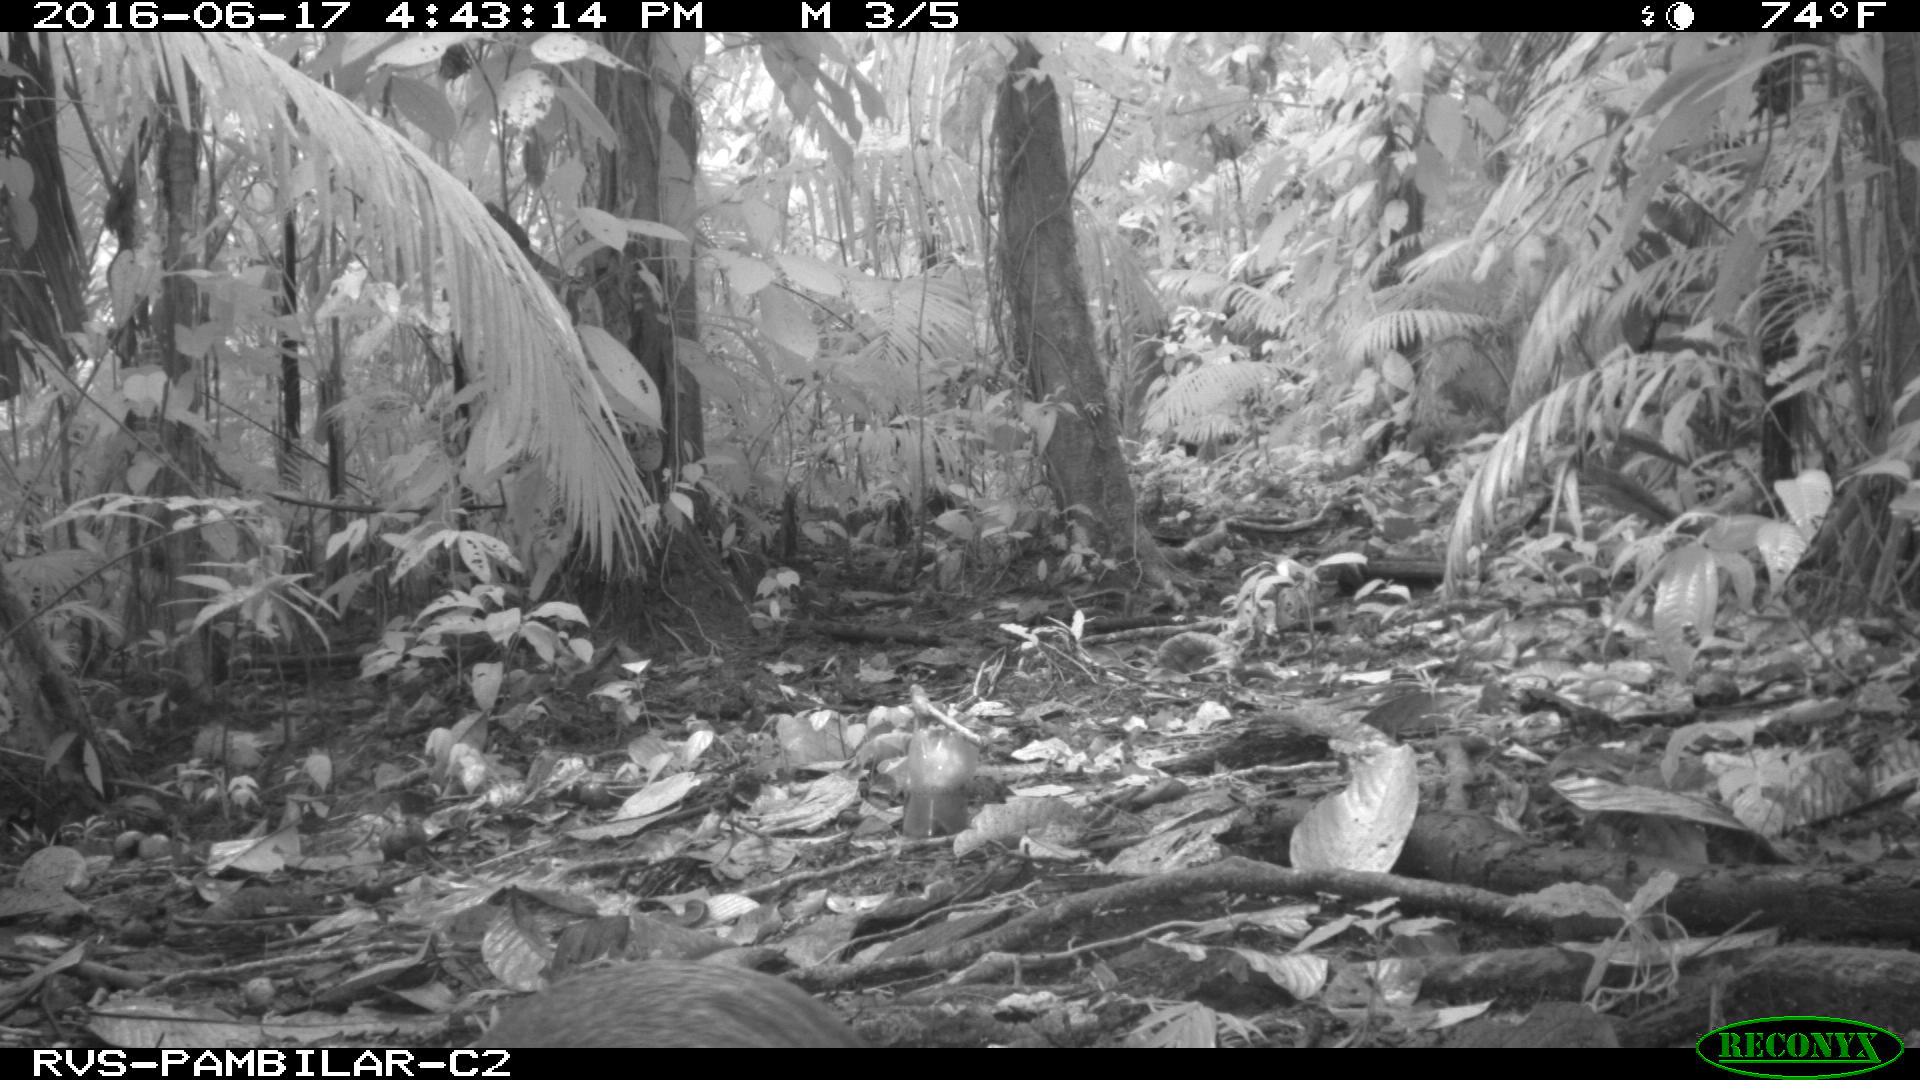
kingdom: Animalia
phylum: Chordata
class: Mammalia
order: Rodentia
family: Dasyproctidae
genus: Dasyprocta
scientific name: Dasyprocta punctata
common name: Central american agouti
